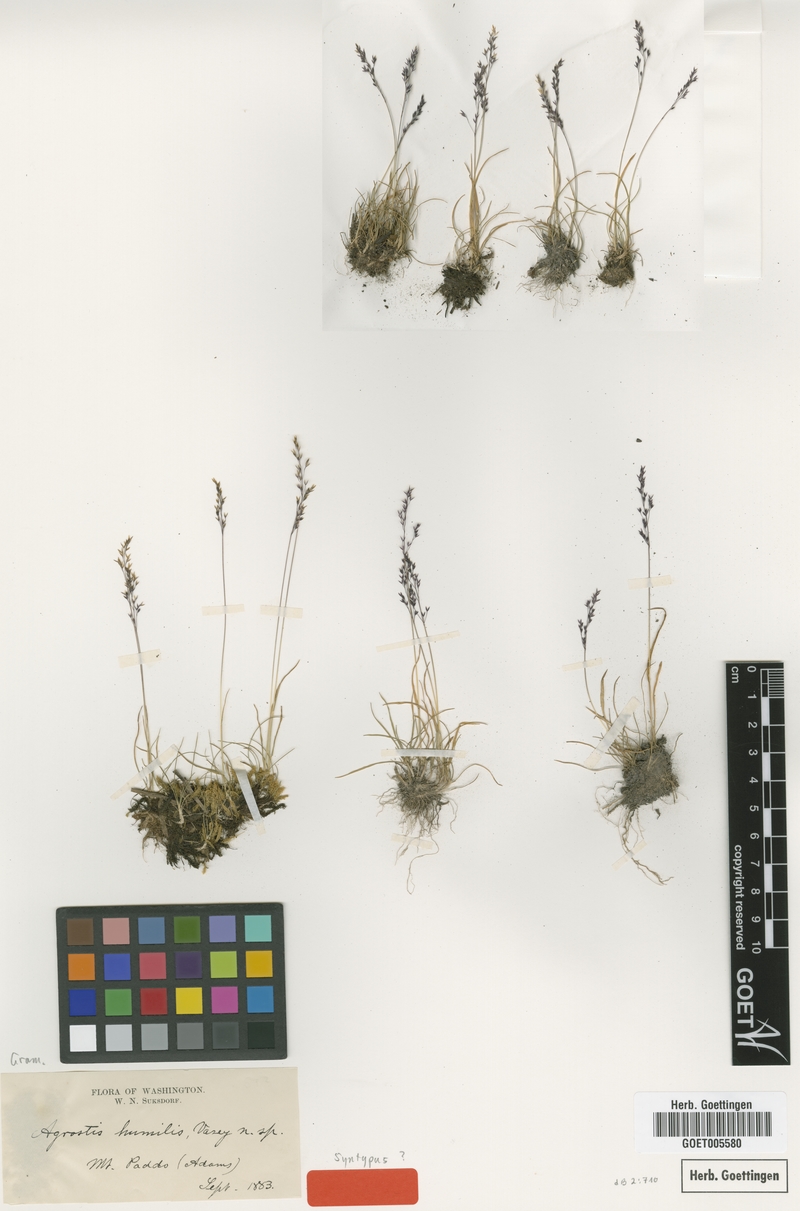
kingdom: Plantae
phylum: Tracheophyta
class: Liliopsida
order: Poales
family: Poaceae
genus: Podagrostis
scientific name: Podagrostis humilis
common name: Thurber's bentgrass
